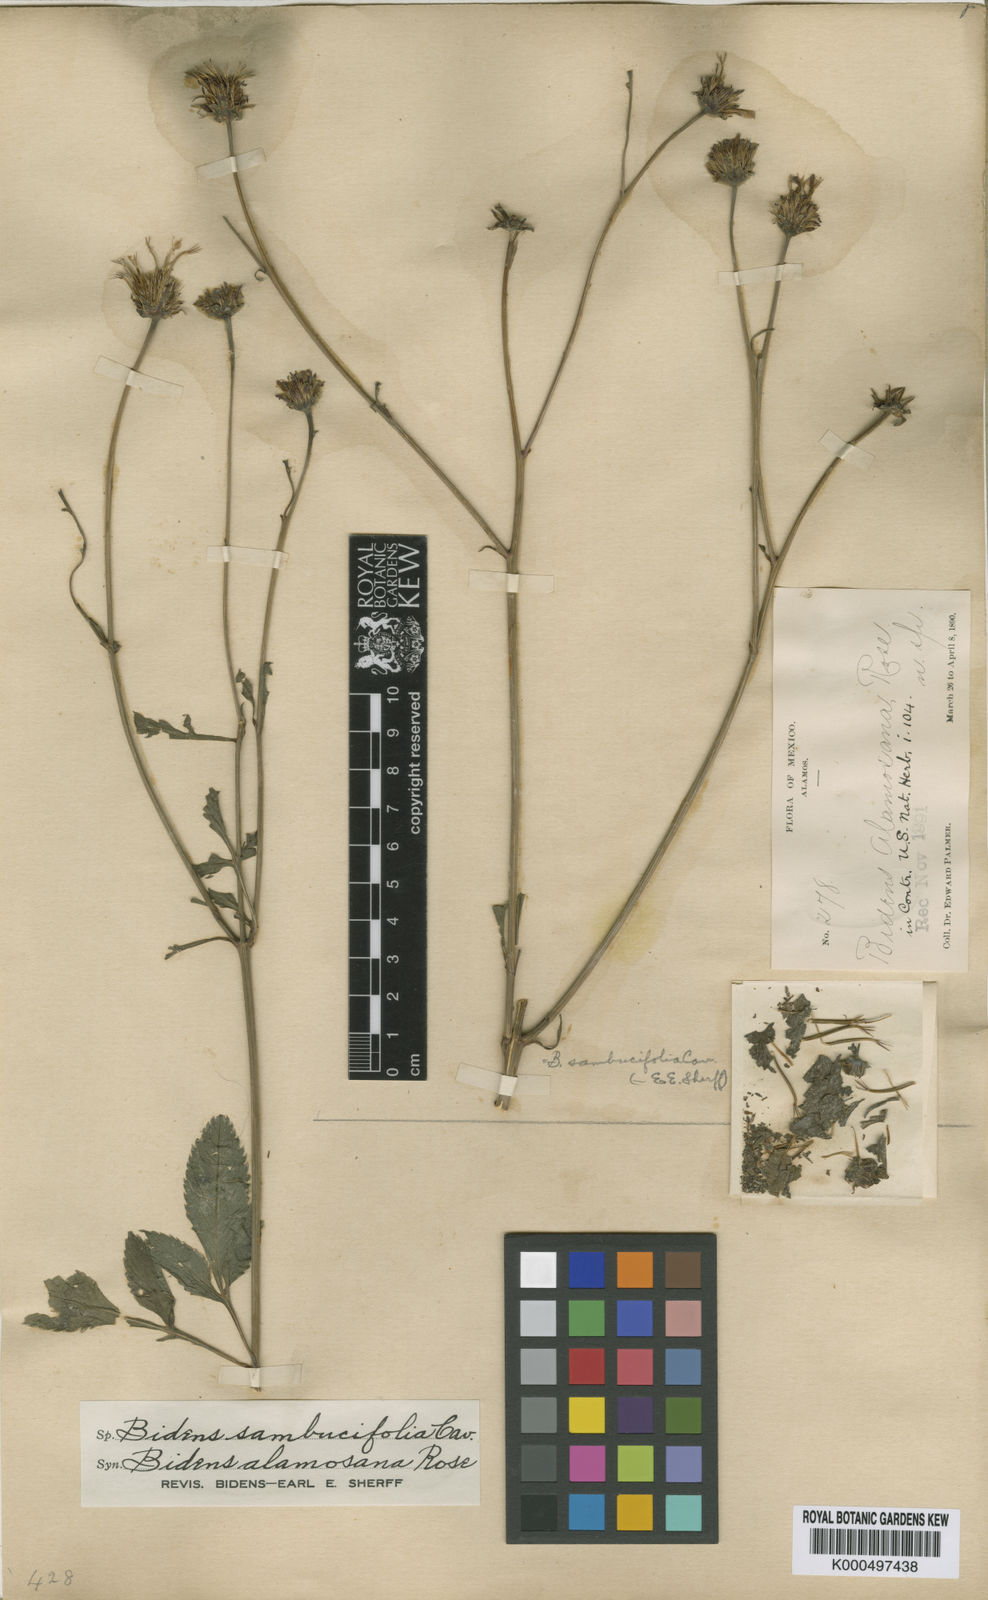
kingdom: Plantae
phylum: Tracheophyta
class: Magnoliopsida
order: Asterales
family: Asteraceae
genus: Bidens
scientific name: Bidens sambucifolia
